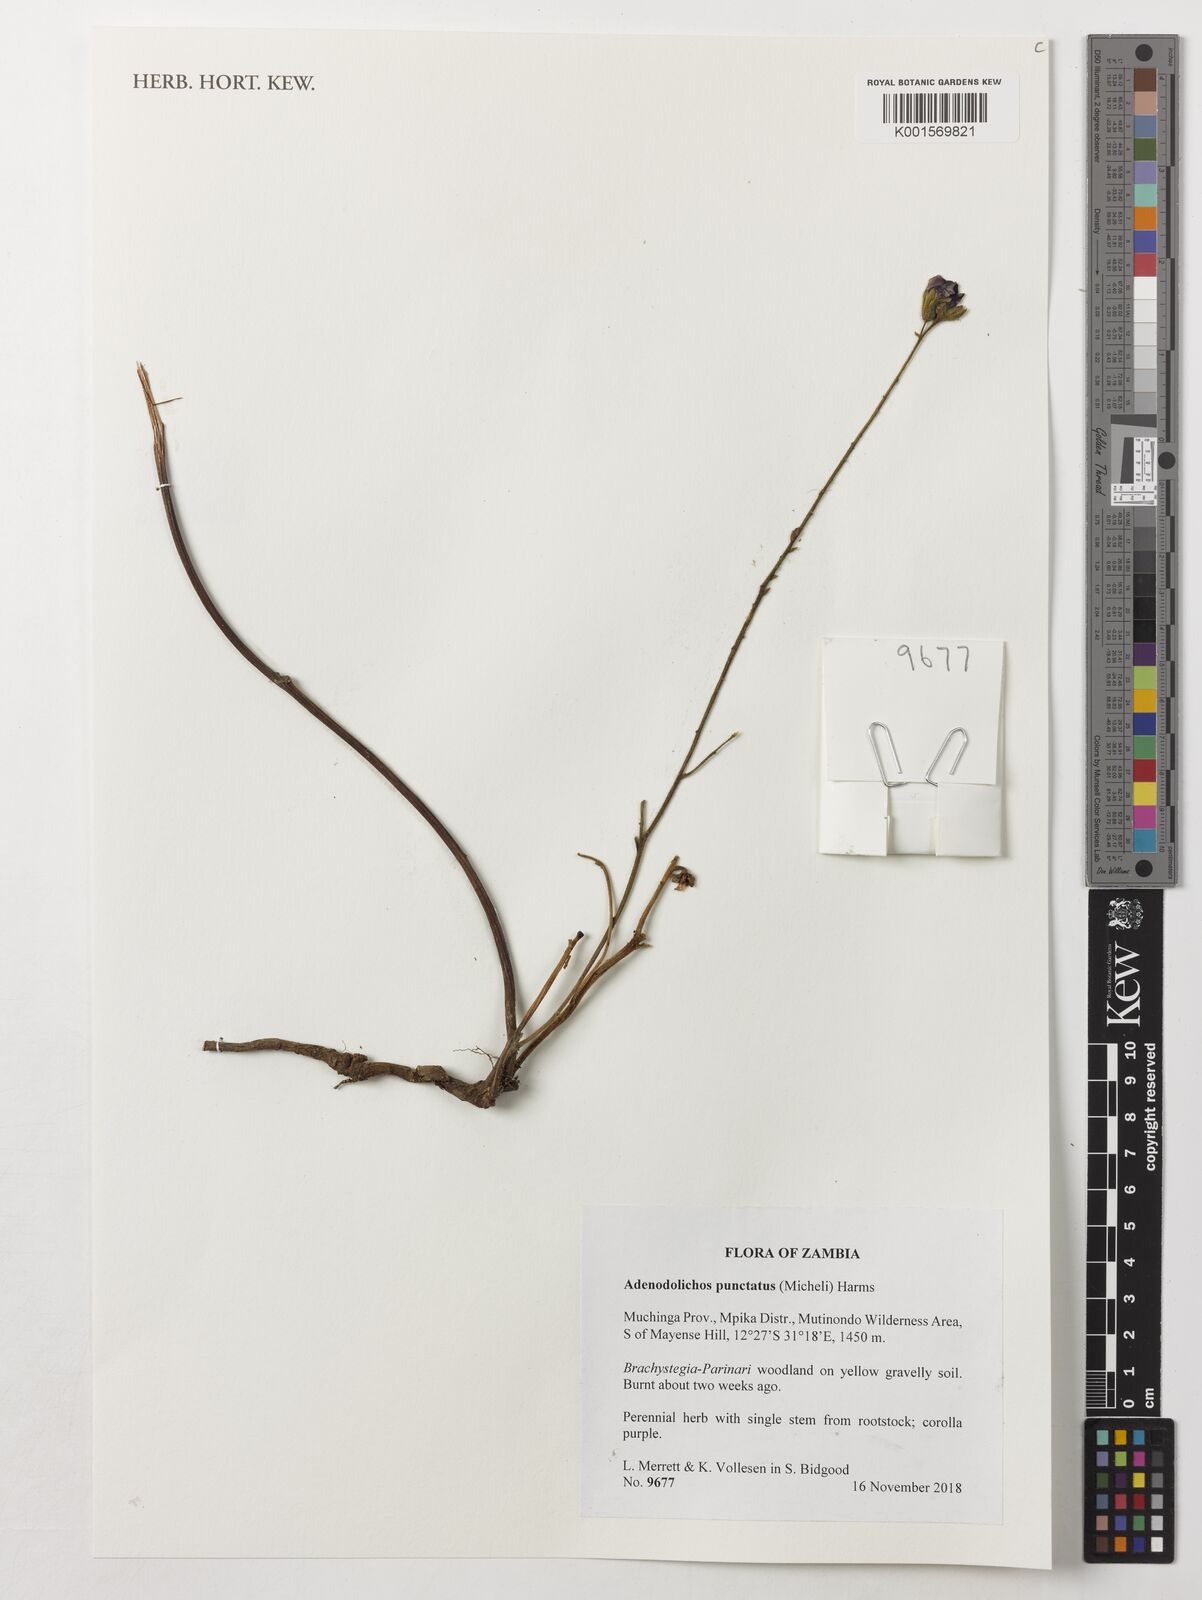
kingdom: Plantae
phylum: Tracheophyta
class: Magnoliopsida
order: Fabales
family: Fabaceae
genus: Adenodolichos
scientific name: Adenodolichos punctatus
